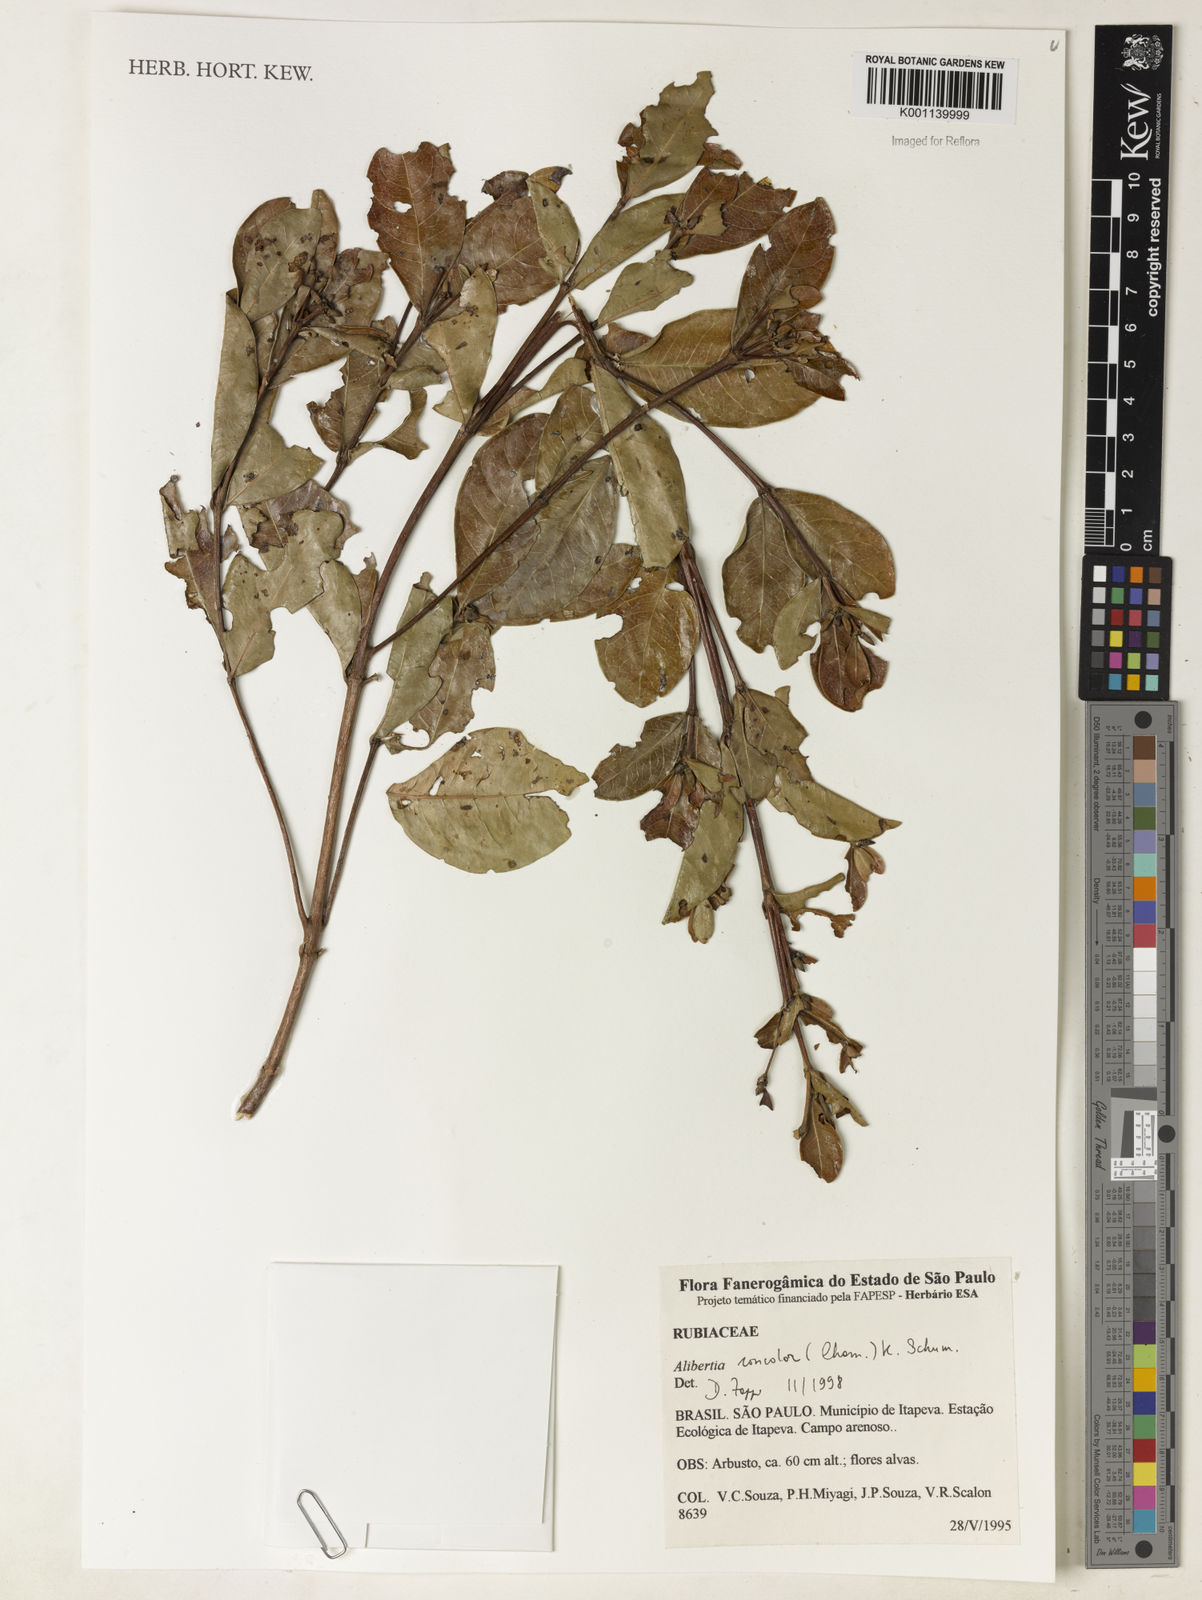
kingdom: Plantae
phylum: Tracheophyta
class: Magnoliopsida
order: Gentianales
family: Rubiaceae
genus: Cordiera
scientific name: Cordiera concolor
